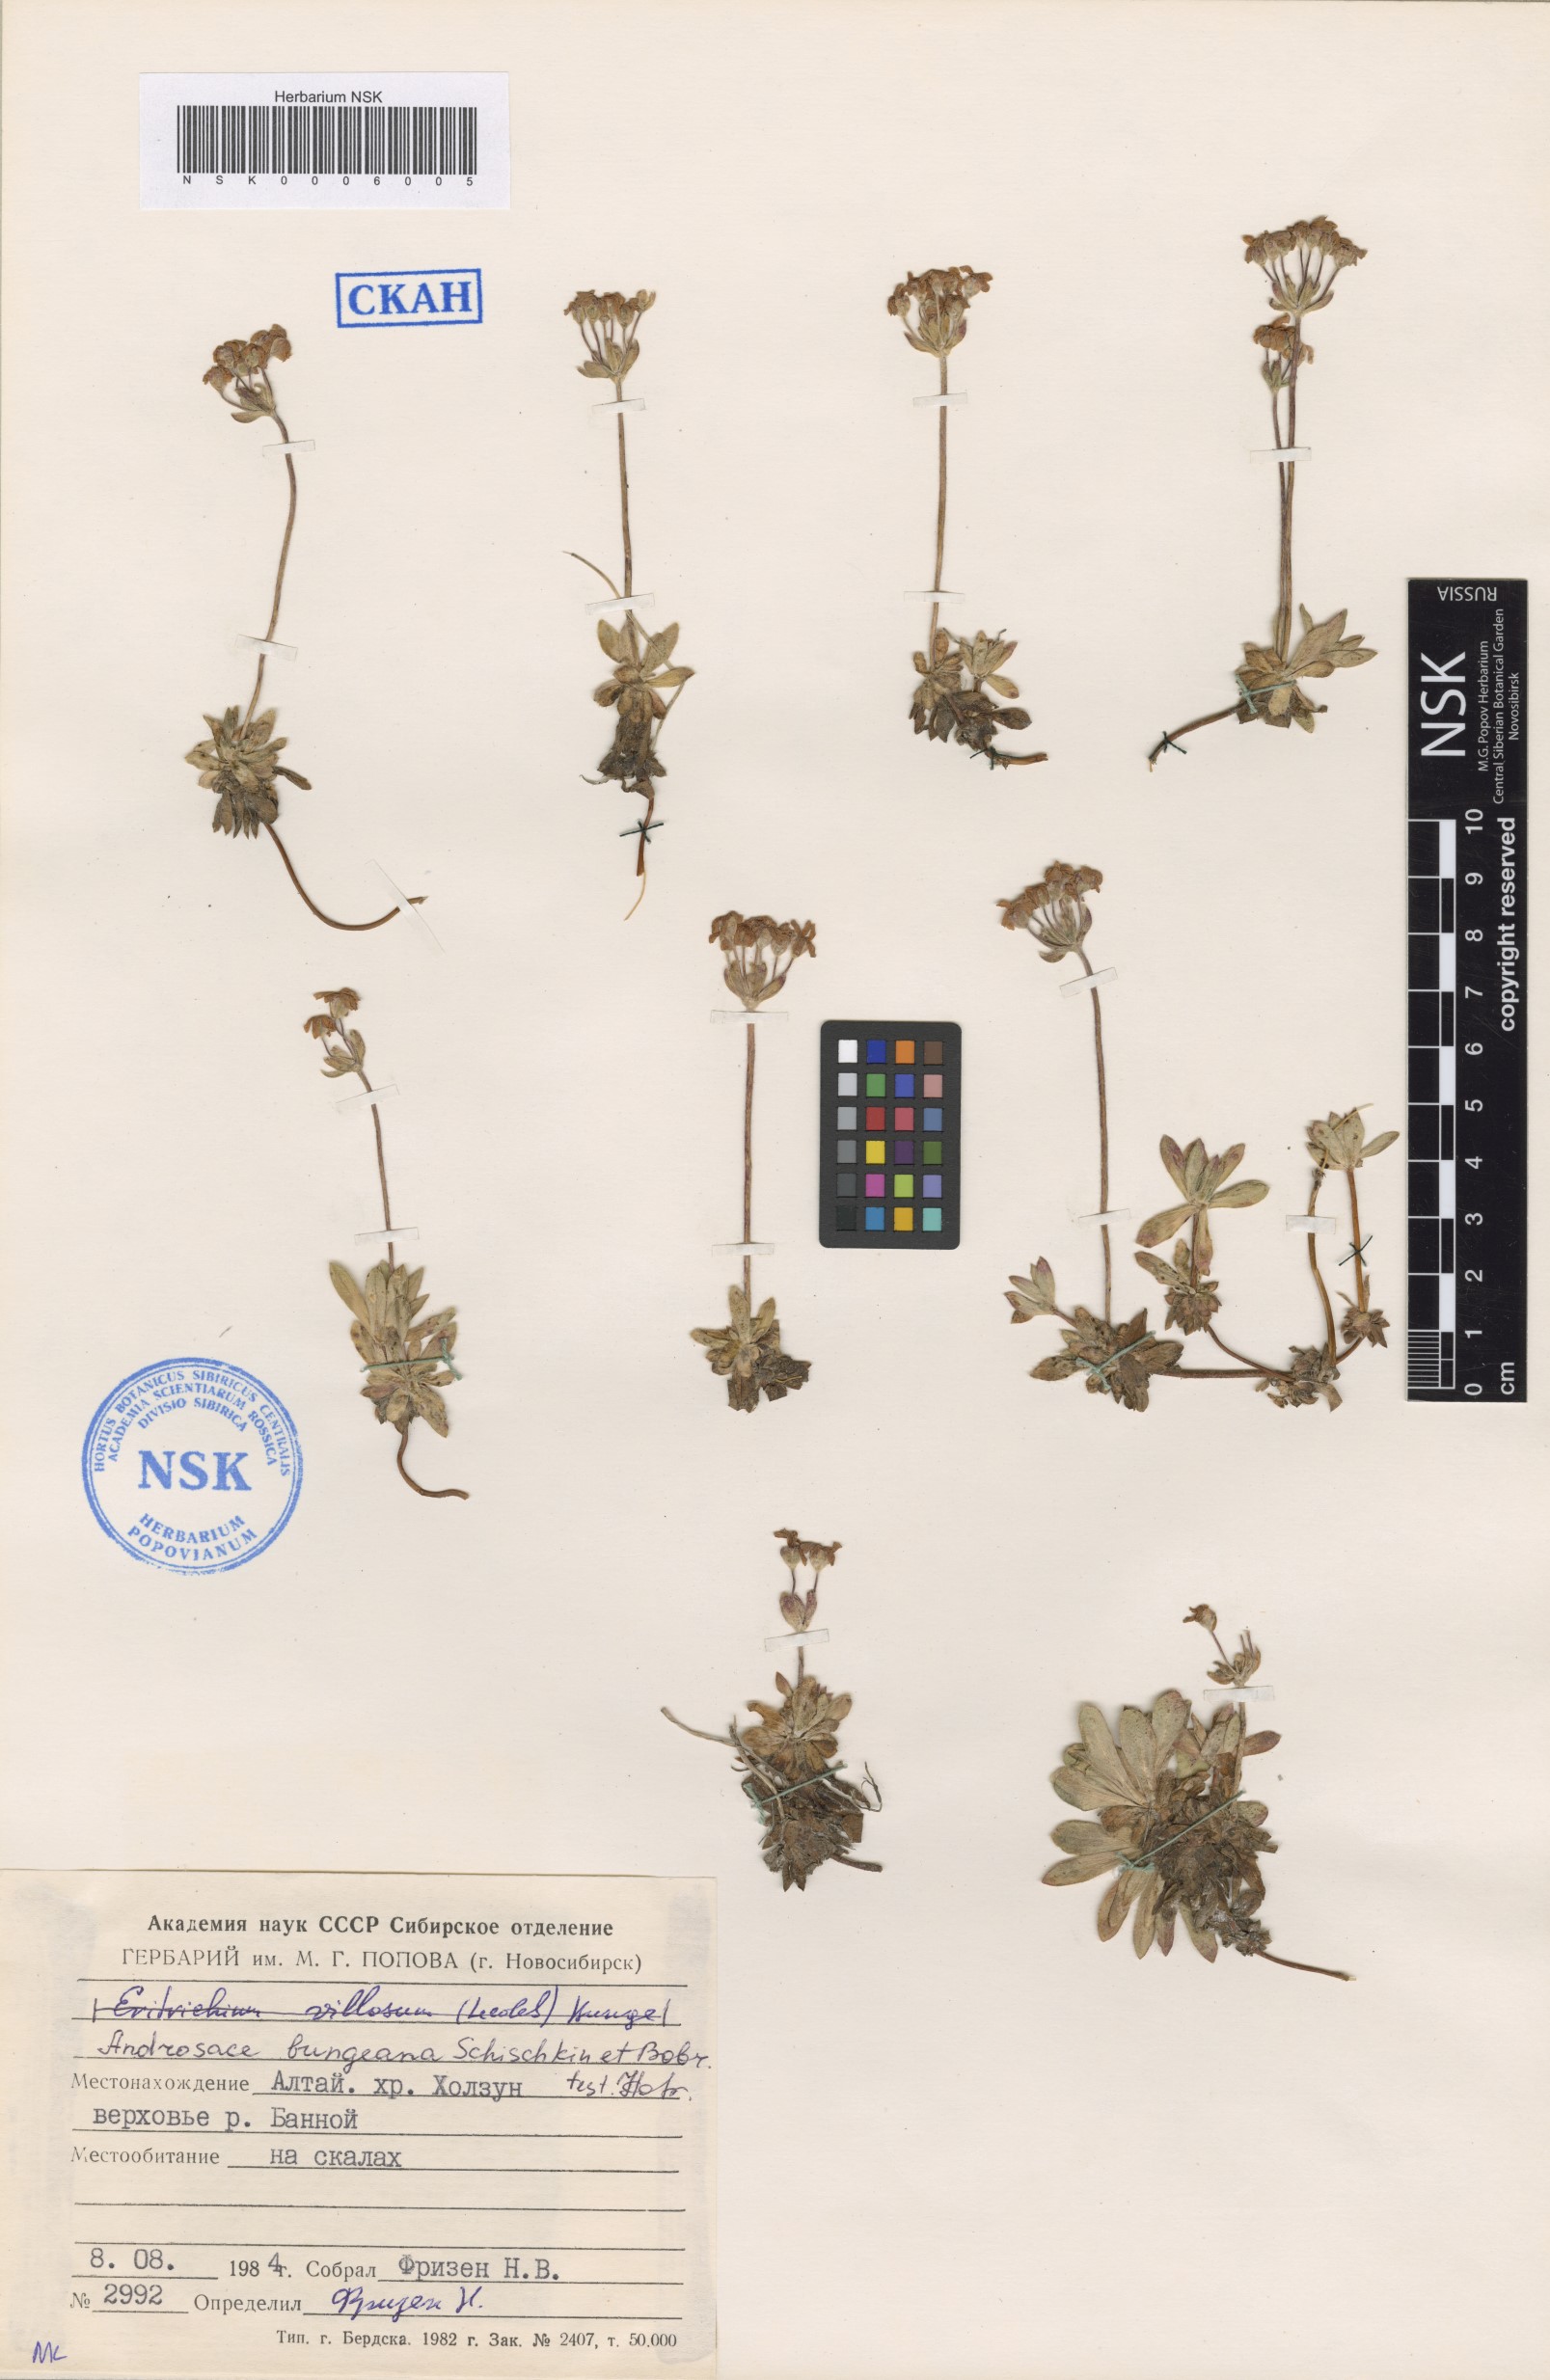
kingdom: Plantae
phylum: Tracheophyta
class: Magnoliopsida
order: Ericales
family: Primulaceae
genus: Androsace
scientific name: Androsace bungeana
